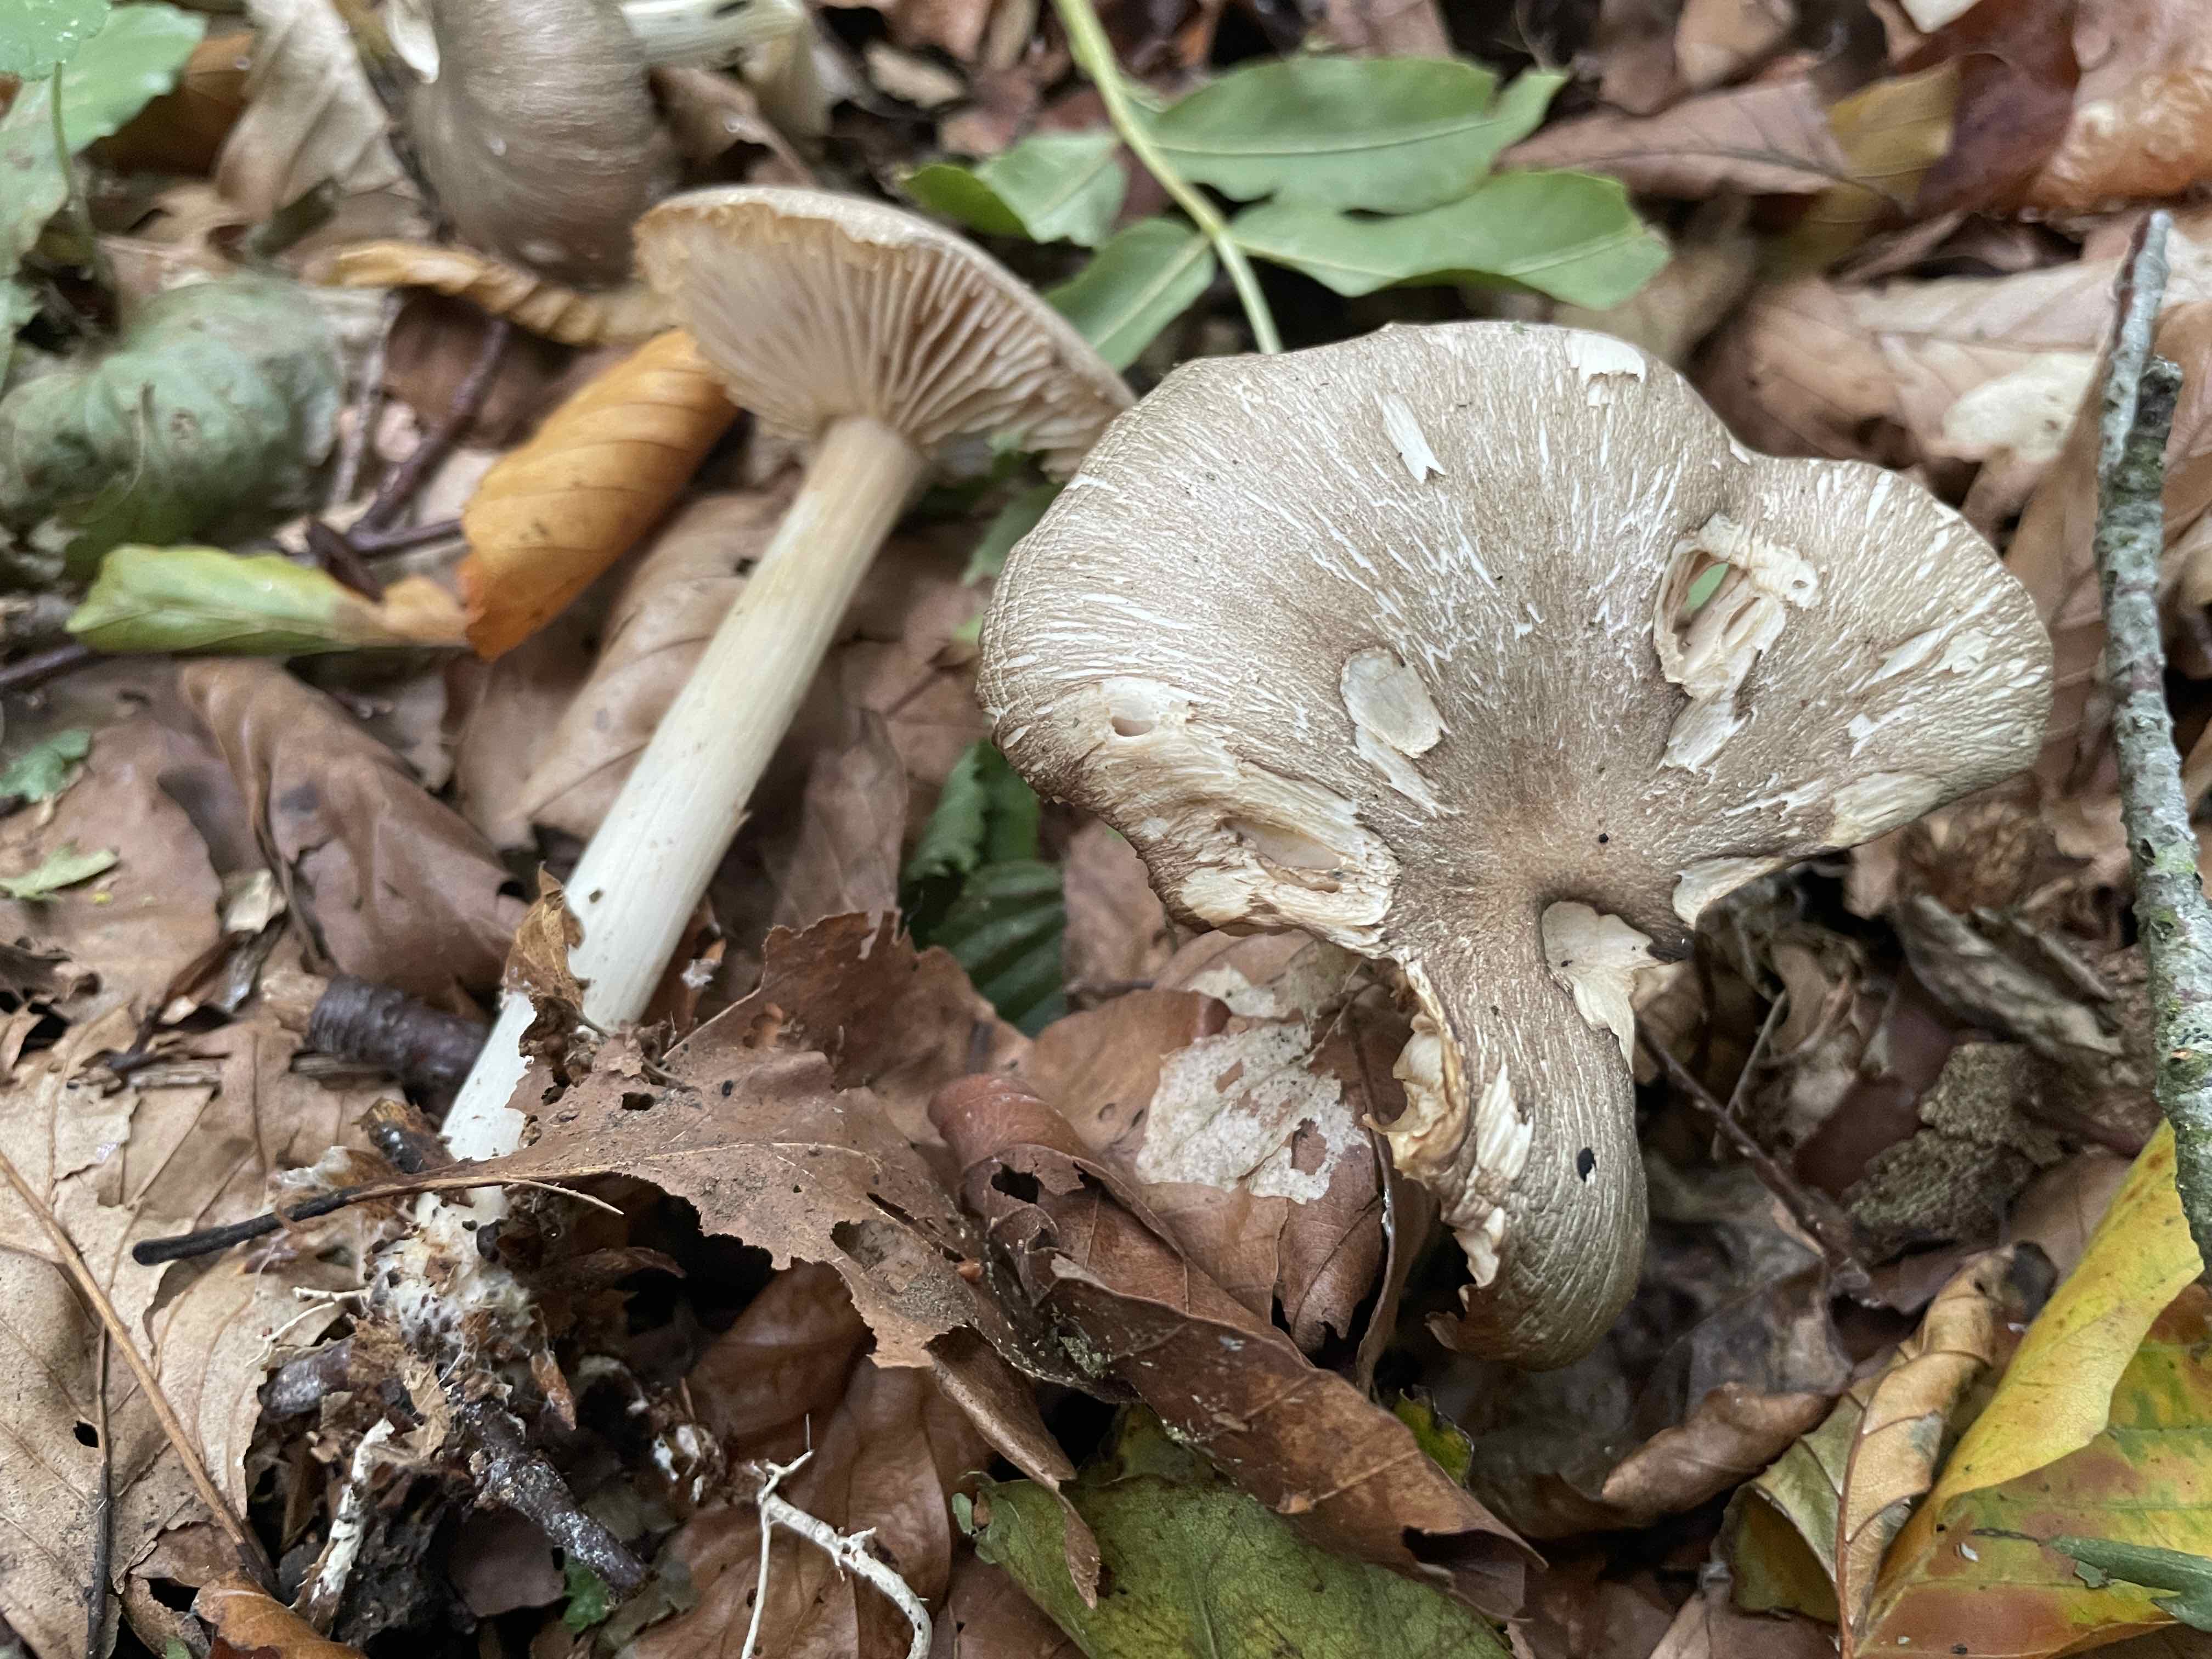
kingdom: Fungi
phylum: Basidiomycota
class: Agaricomycetes
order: Agaricales
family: Tricholomataceae
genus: Megacollybia
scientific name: Megacollybia platyphylla
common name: bredbladet væbnerhat
